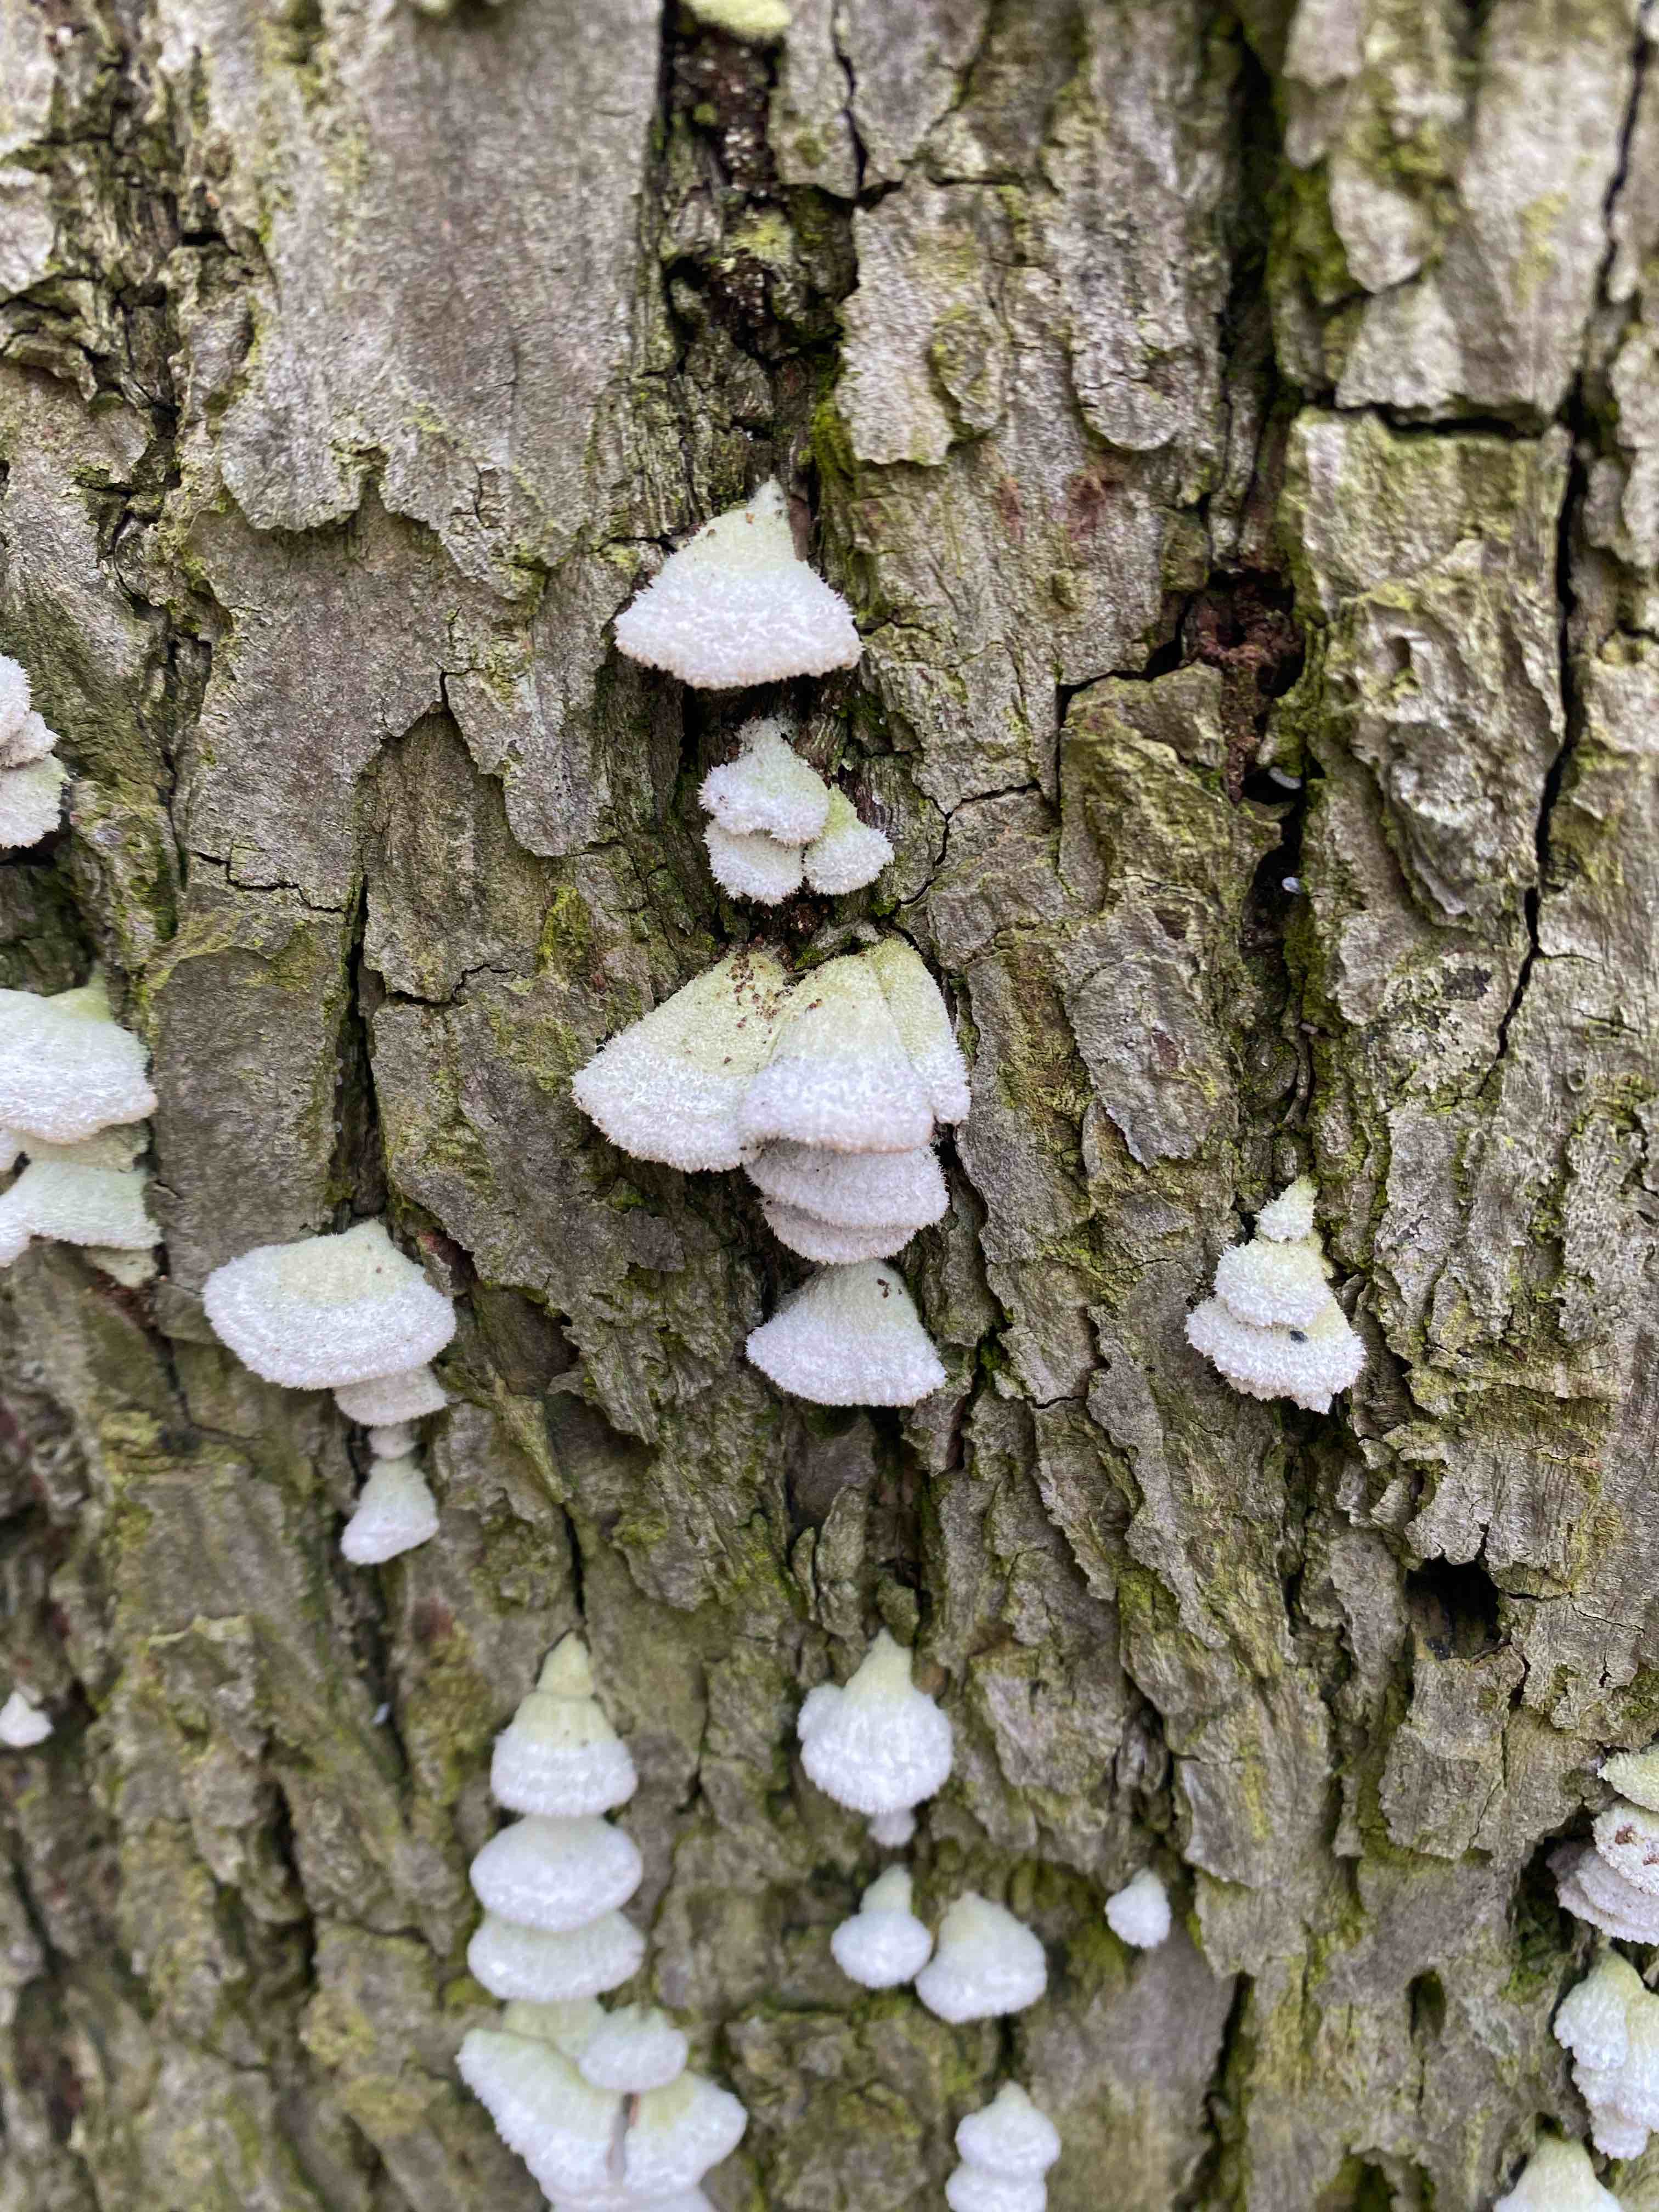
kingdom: Fungi
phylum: Basidiomycota
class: Agaricomycetes
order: Agaricales
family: Schizophyllaceae
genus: Schizophyllum
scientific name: Schizophyllum commune
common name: kløvblad
